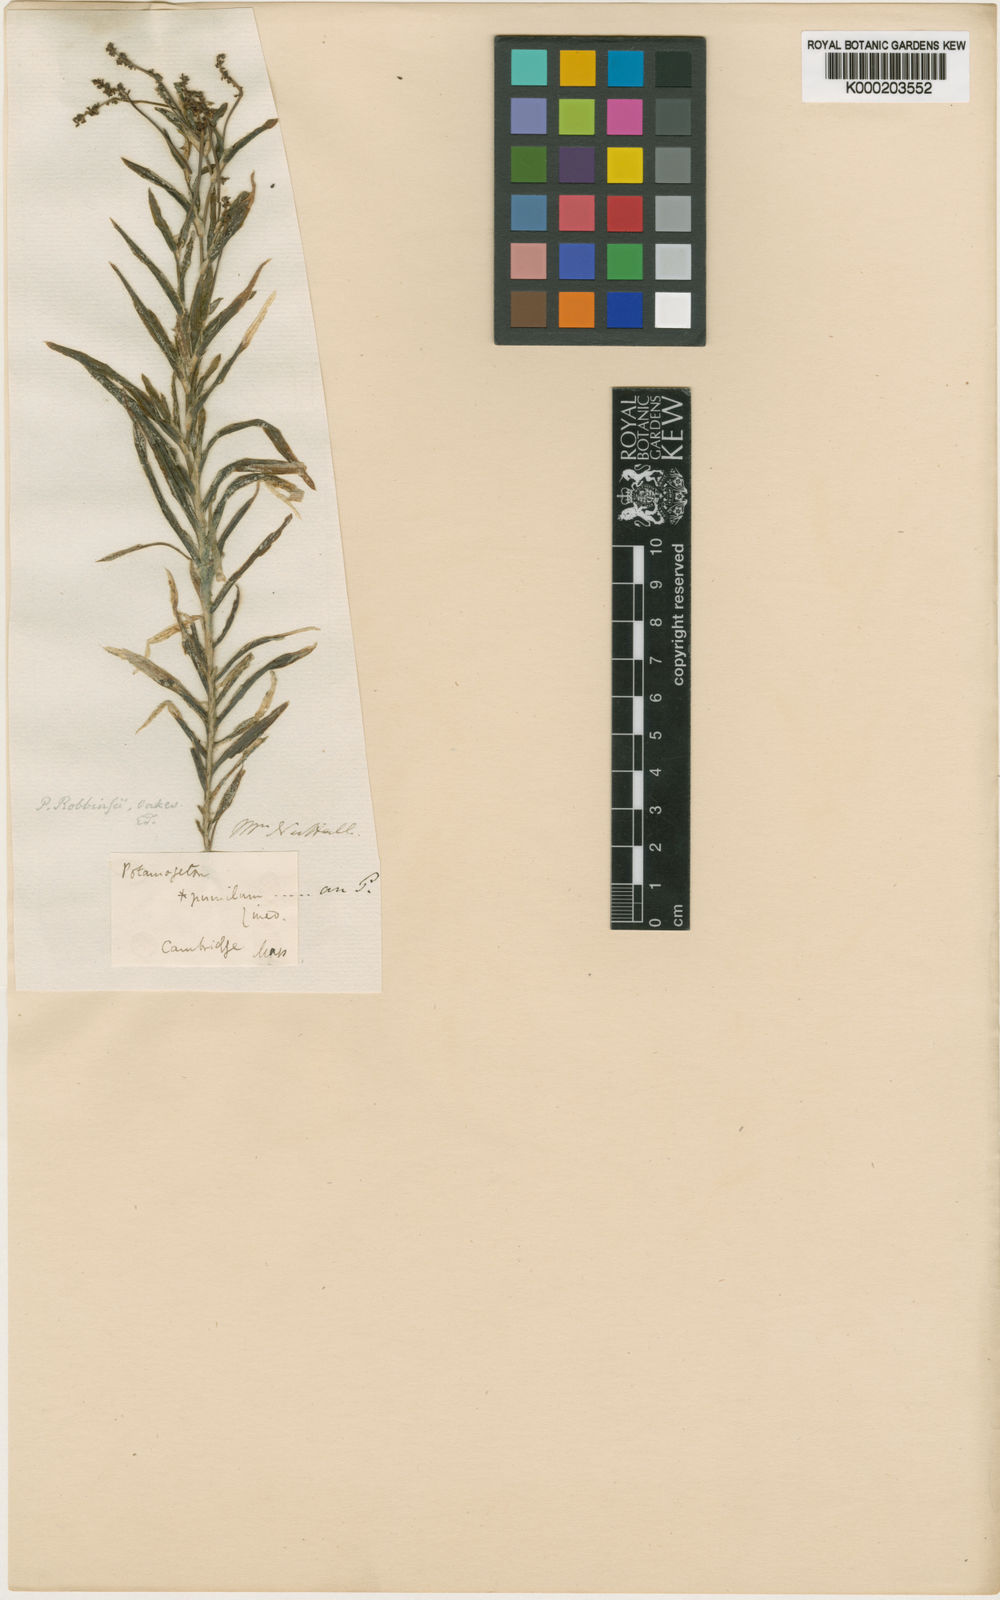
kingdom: Plantae
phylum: Tracheophyta
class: Liliopsida
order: Alismatales
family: Potamogetonaceae
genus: Potamogeton
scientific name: Potamogeton robbinsii
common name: Fern pondweed
